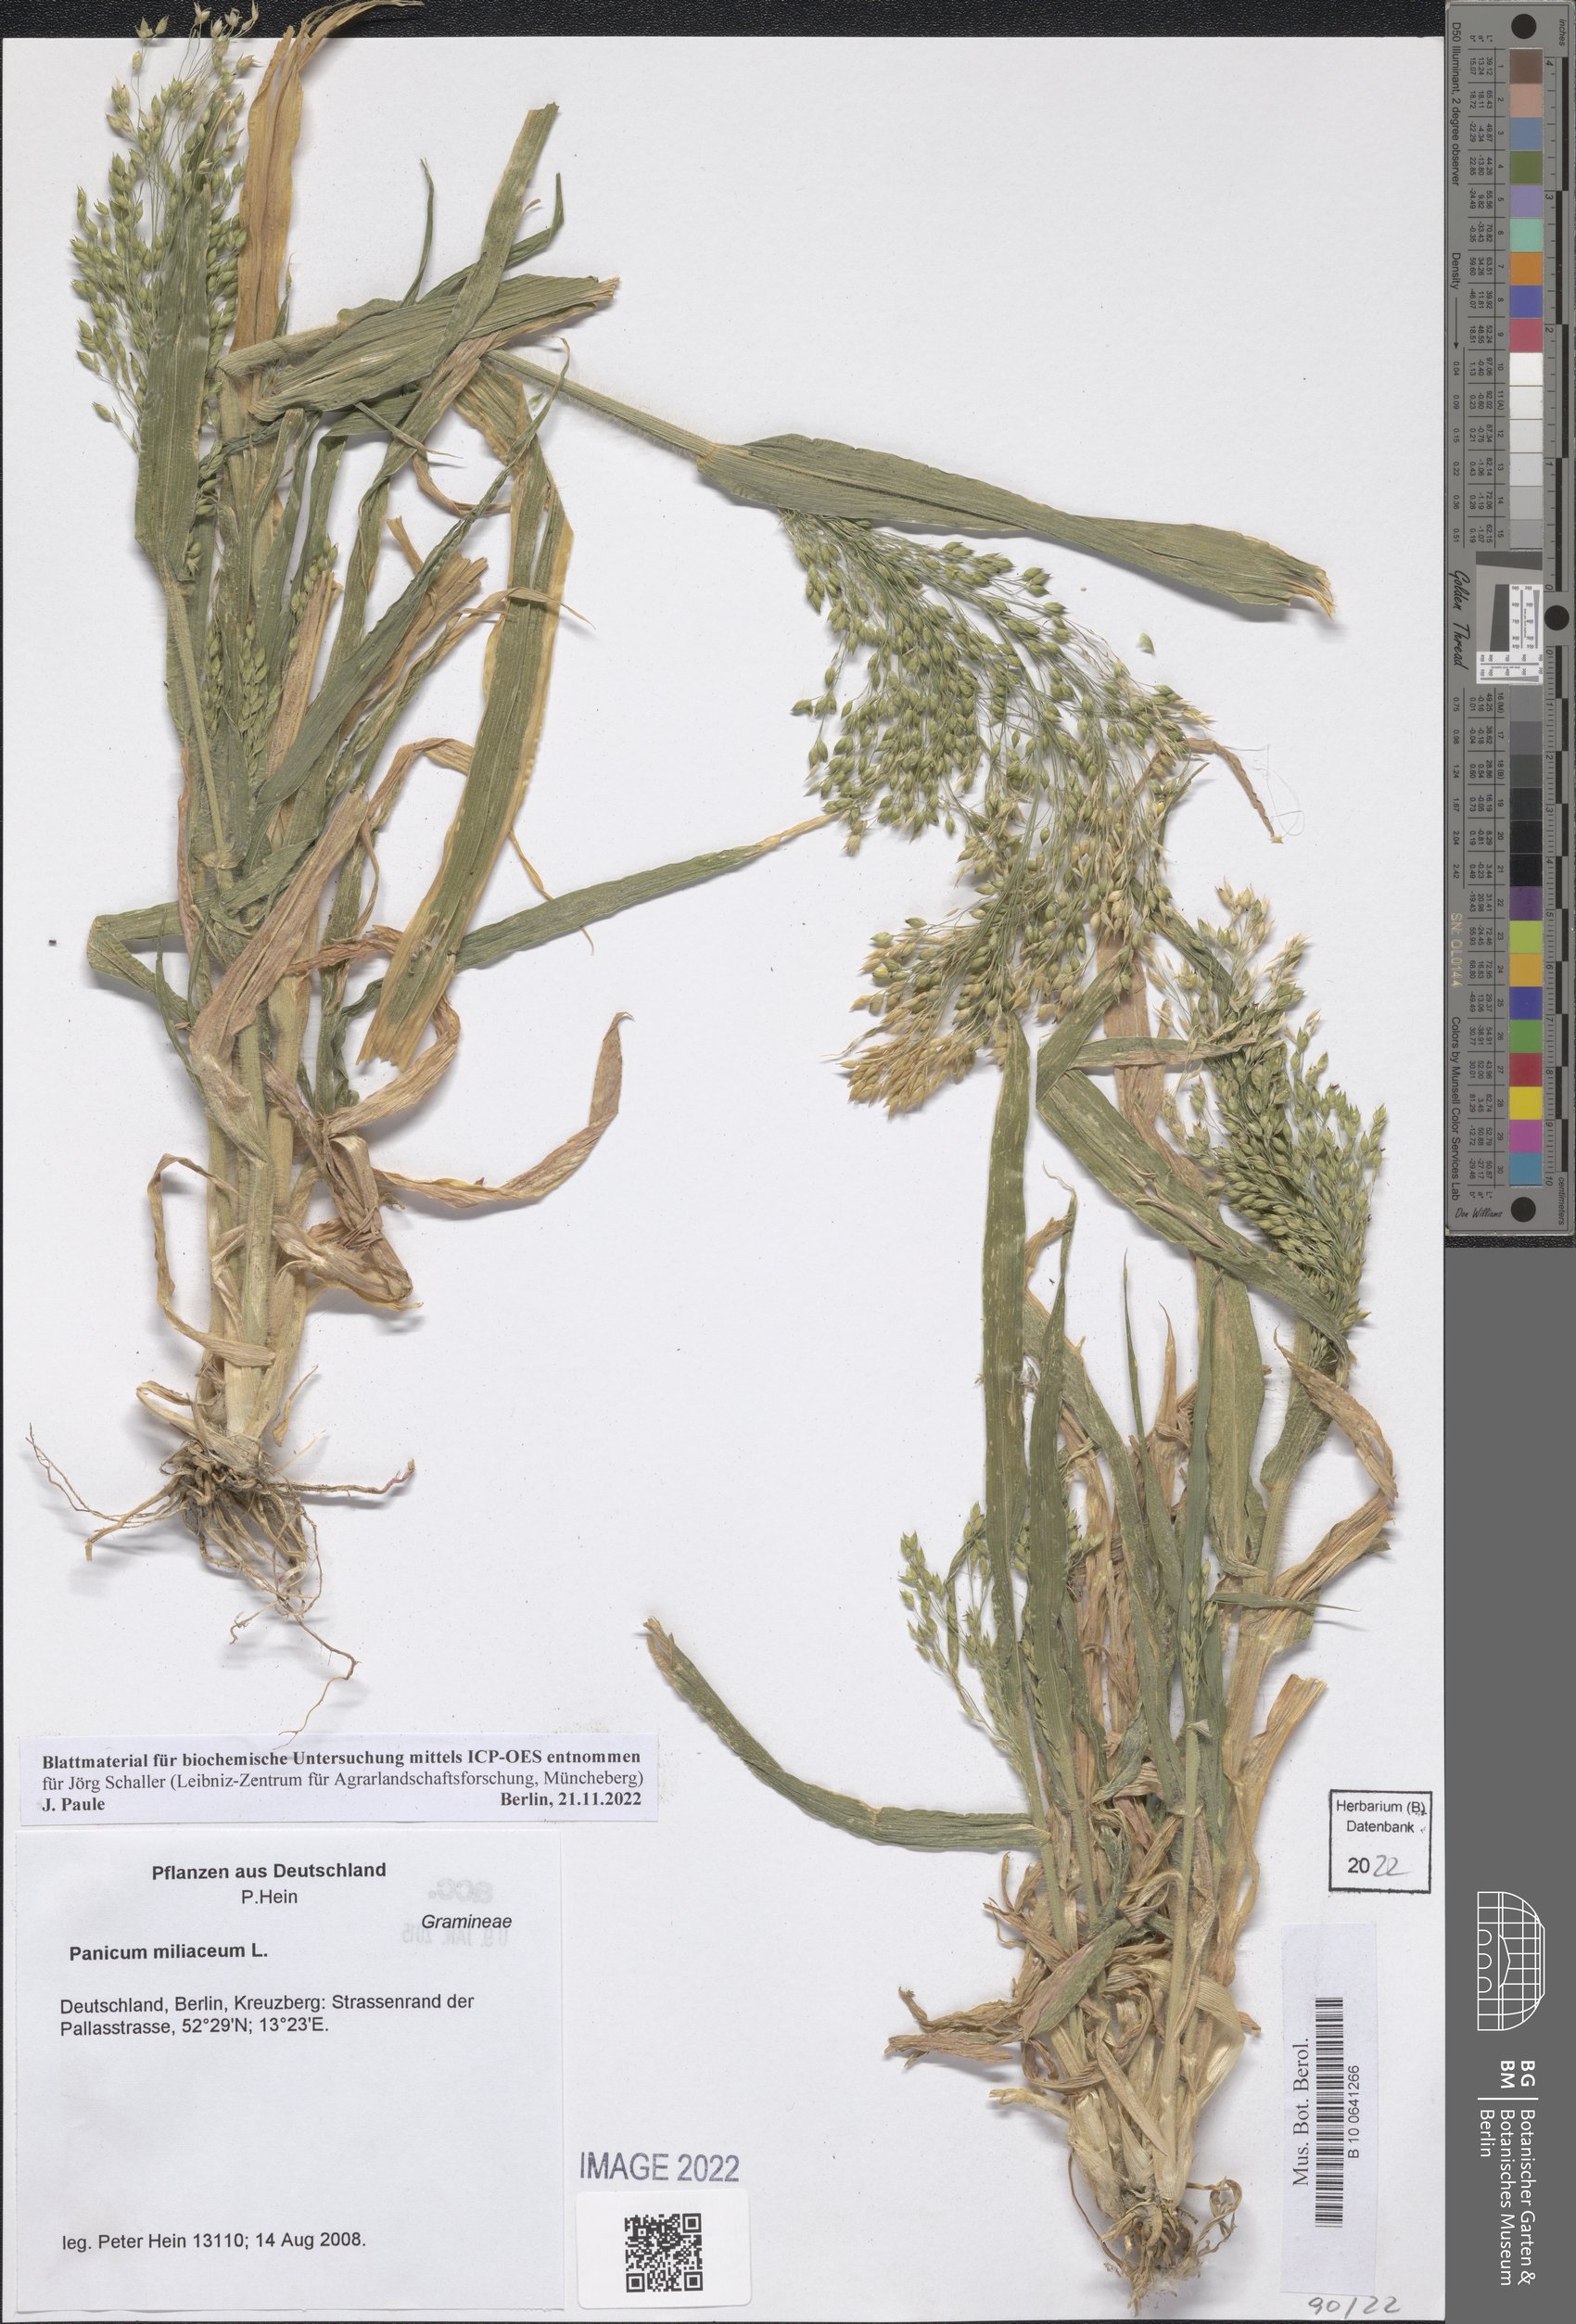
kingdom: Plantae
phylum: Tracheophyta
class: Liliopsida
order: Poales
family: Poaceae
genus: Panicum
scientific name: Panicum miliaceum
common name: Common millet
